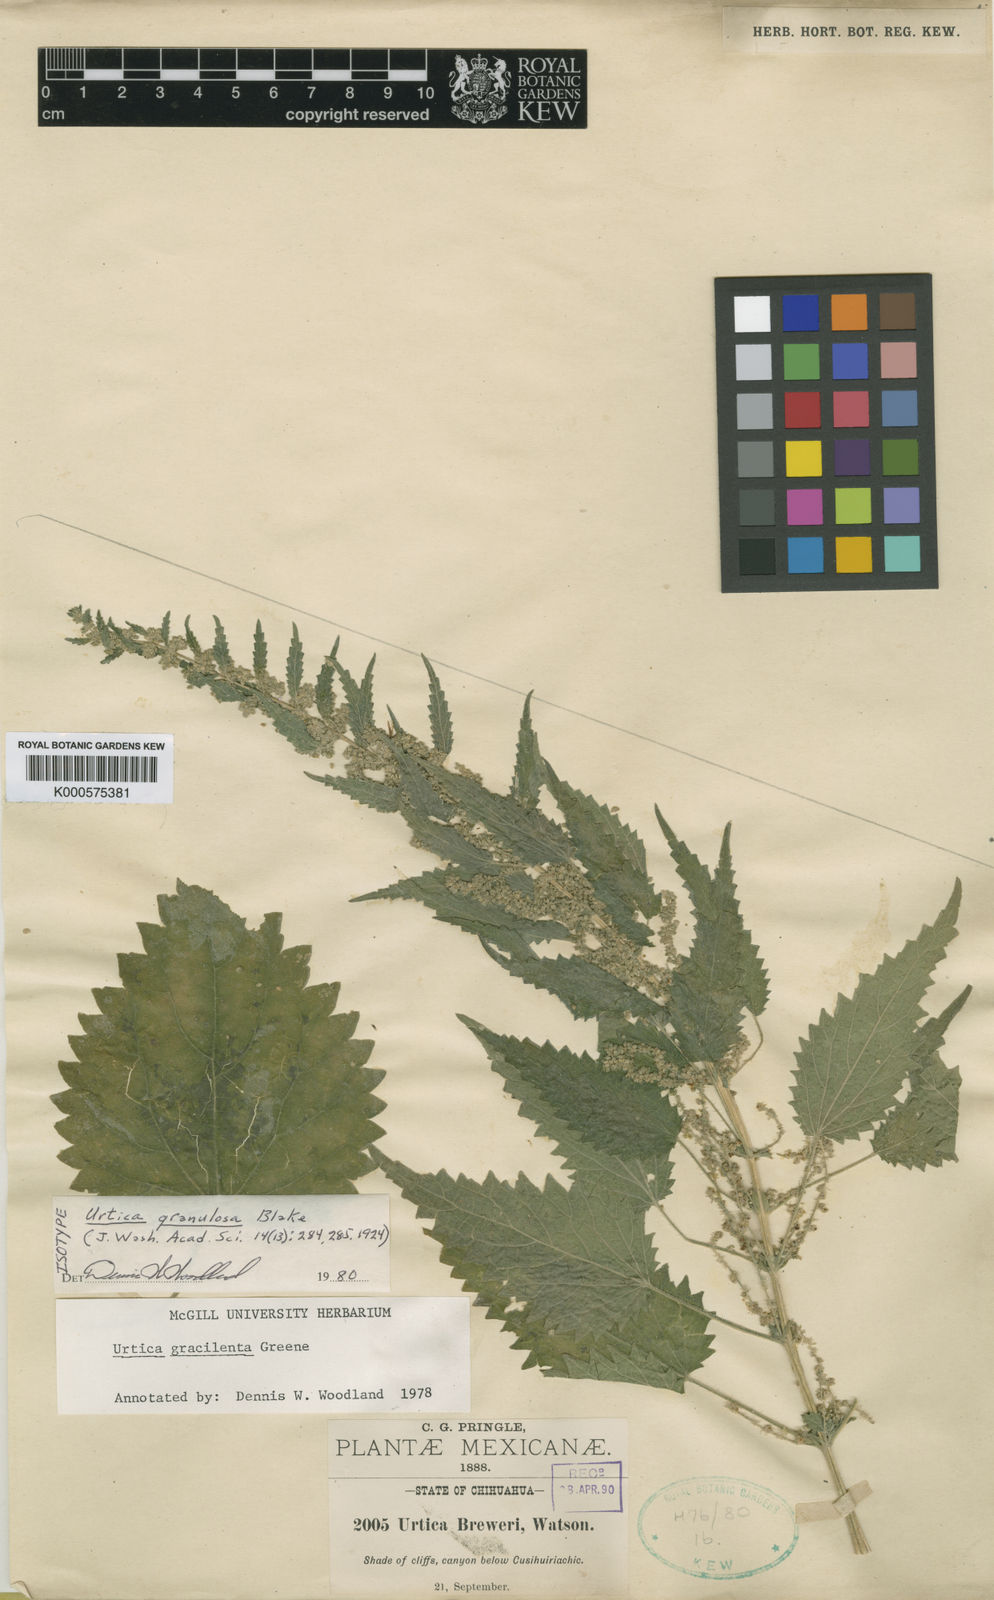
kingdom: Plantae
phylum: Tracheophyta
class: Magnoliopsida
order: Rosales
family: Urticaceae
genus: Urtica
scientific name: Urtica gracilenta
